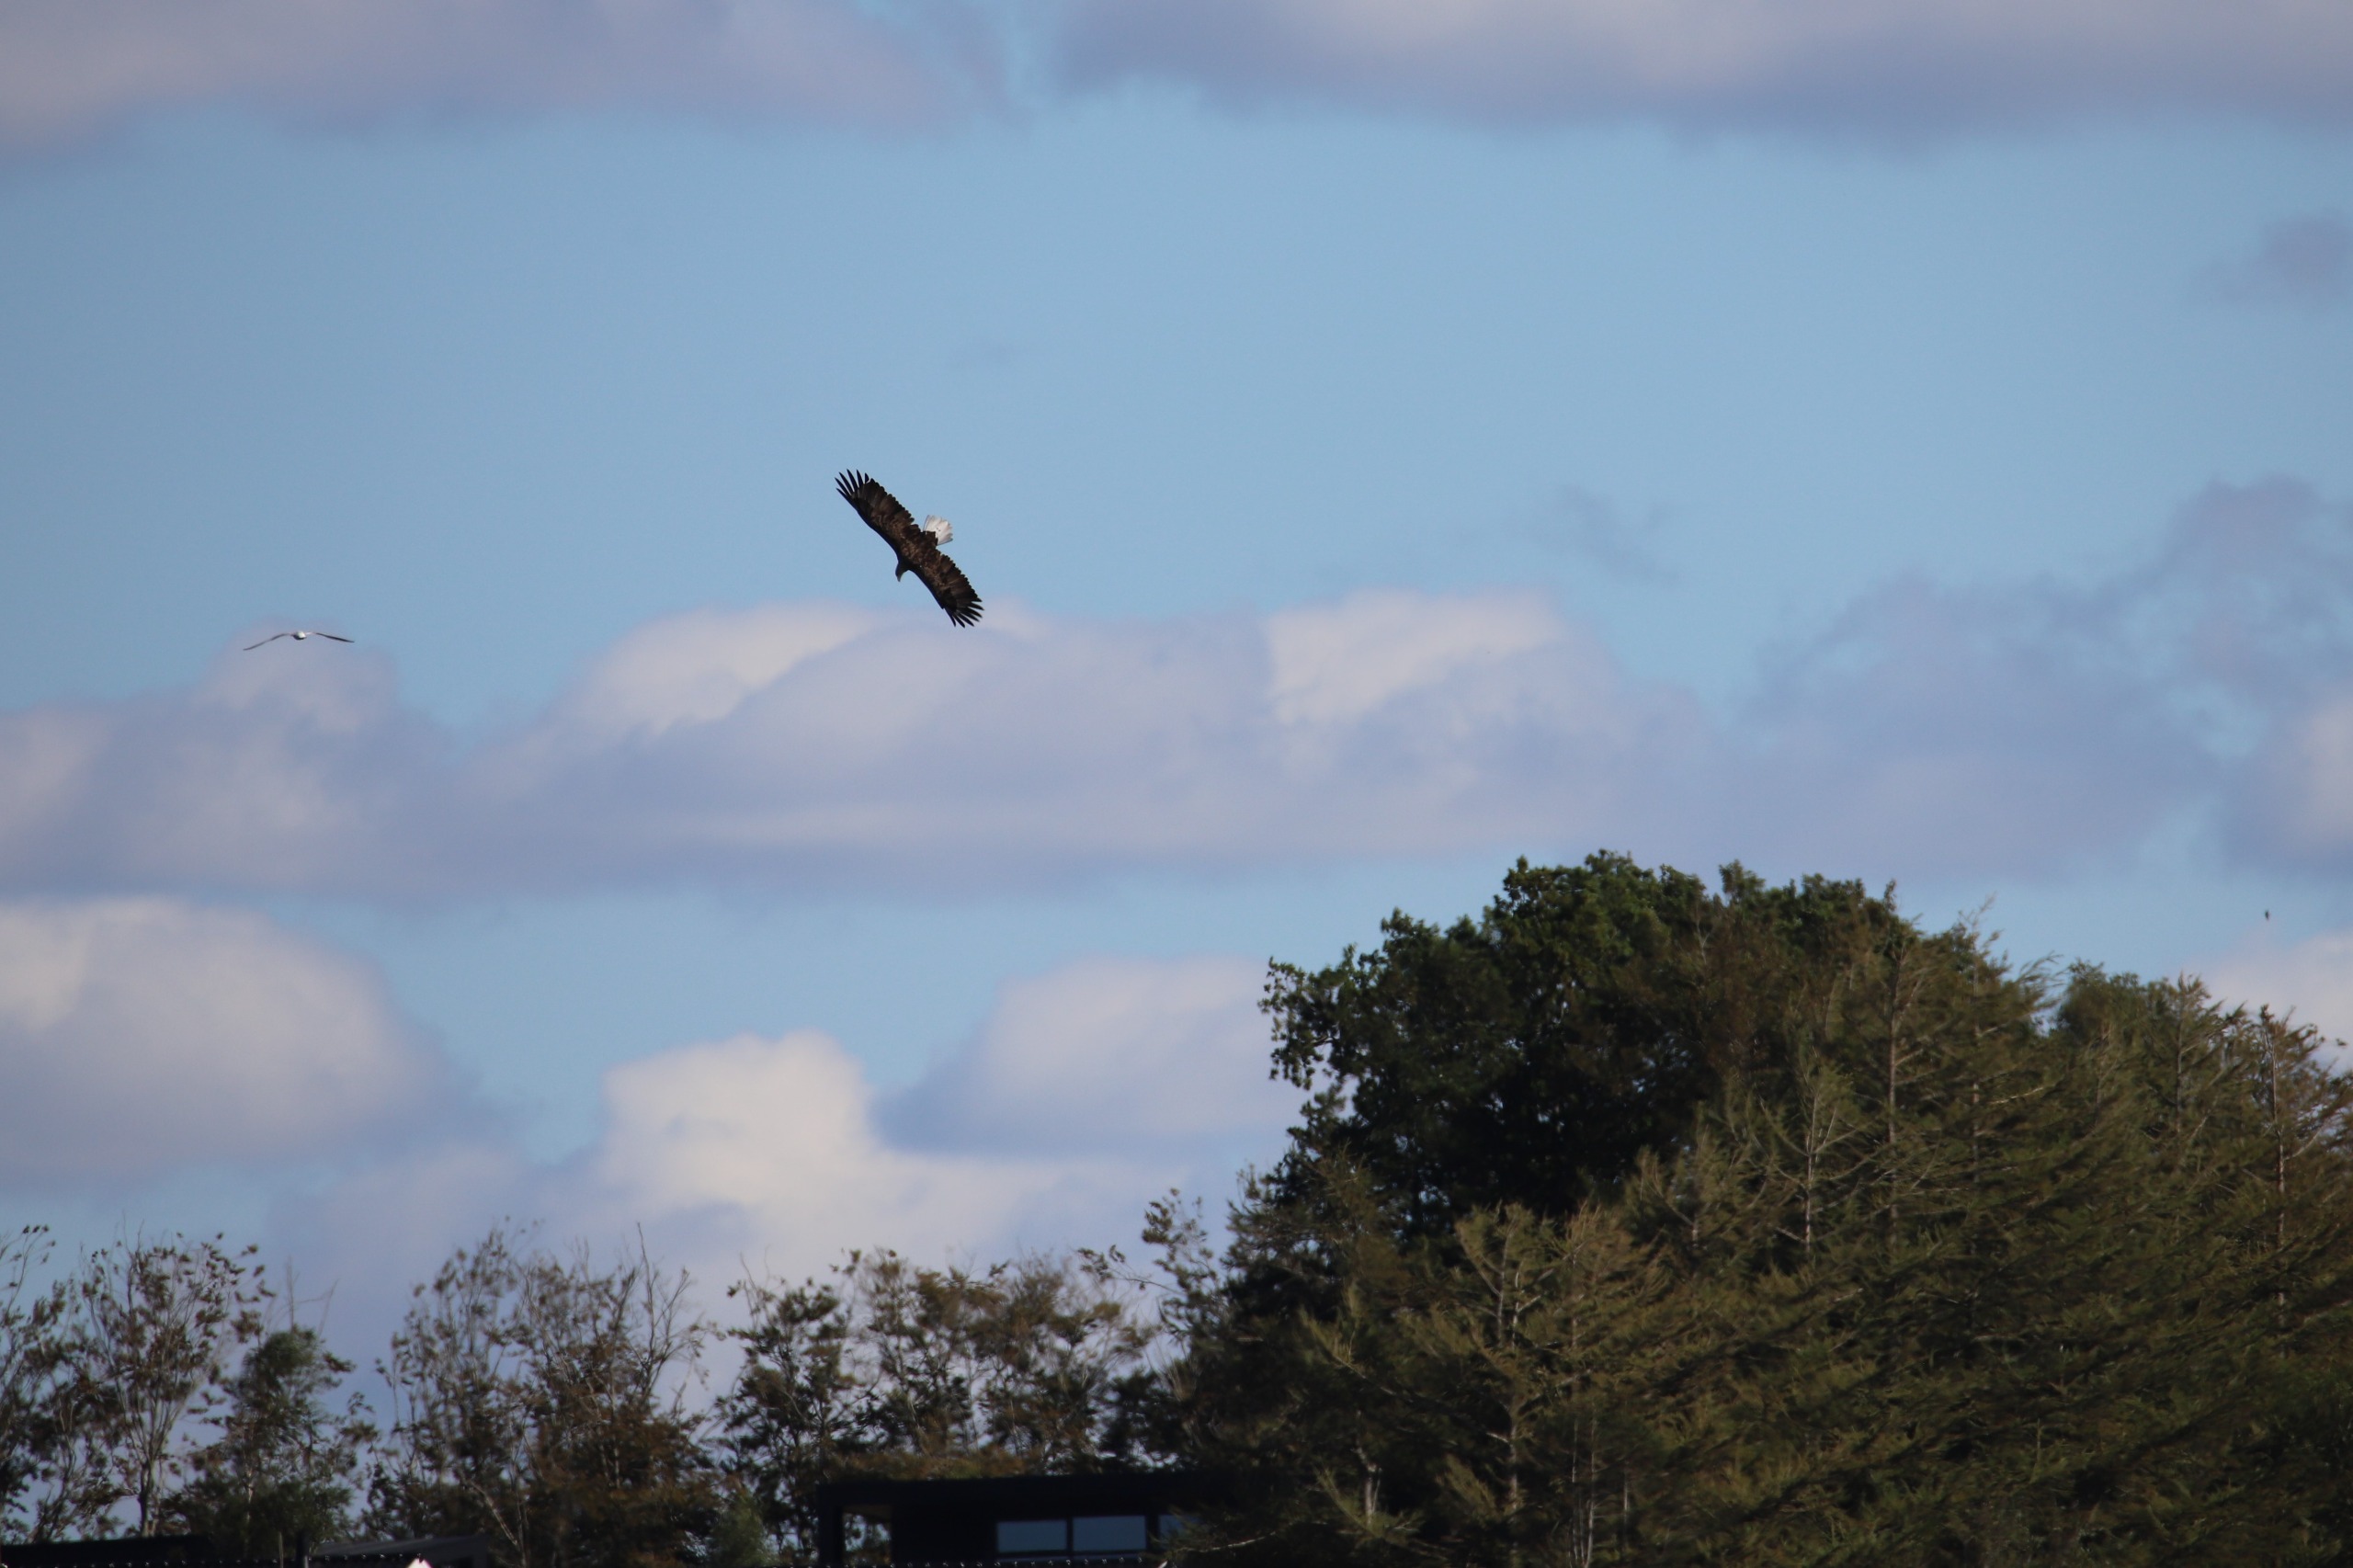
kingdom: Animalia
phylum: Chordata
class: Aves
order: Accipitriformes
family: Accipitridae
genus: Haliaeetus
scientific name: Haliaeetus albicilla
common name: Havørn
